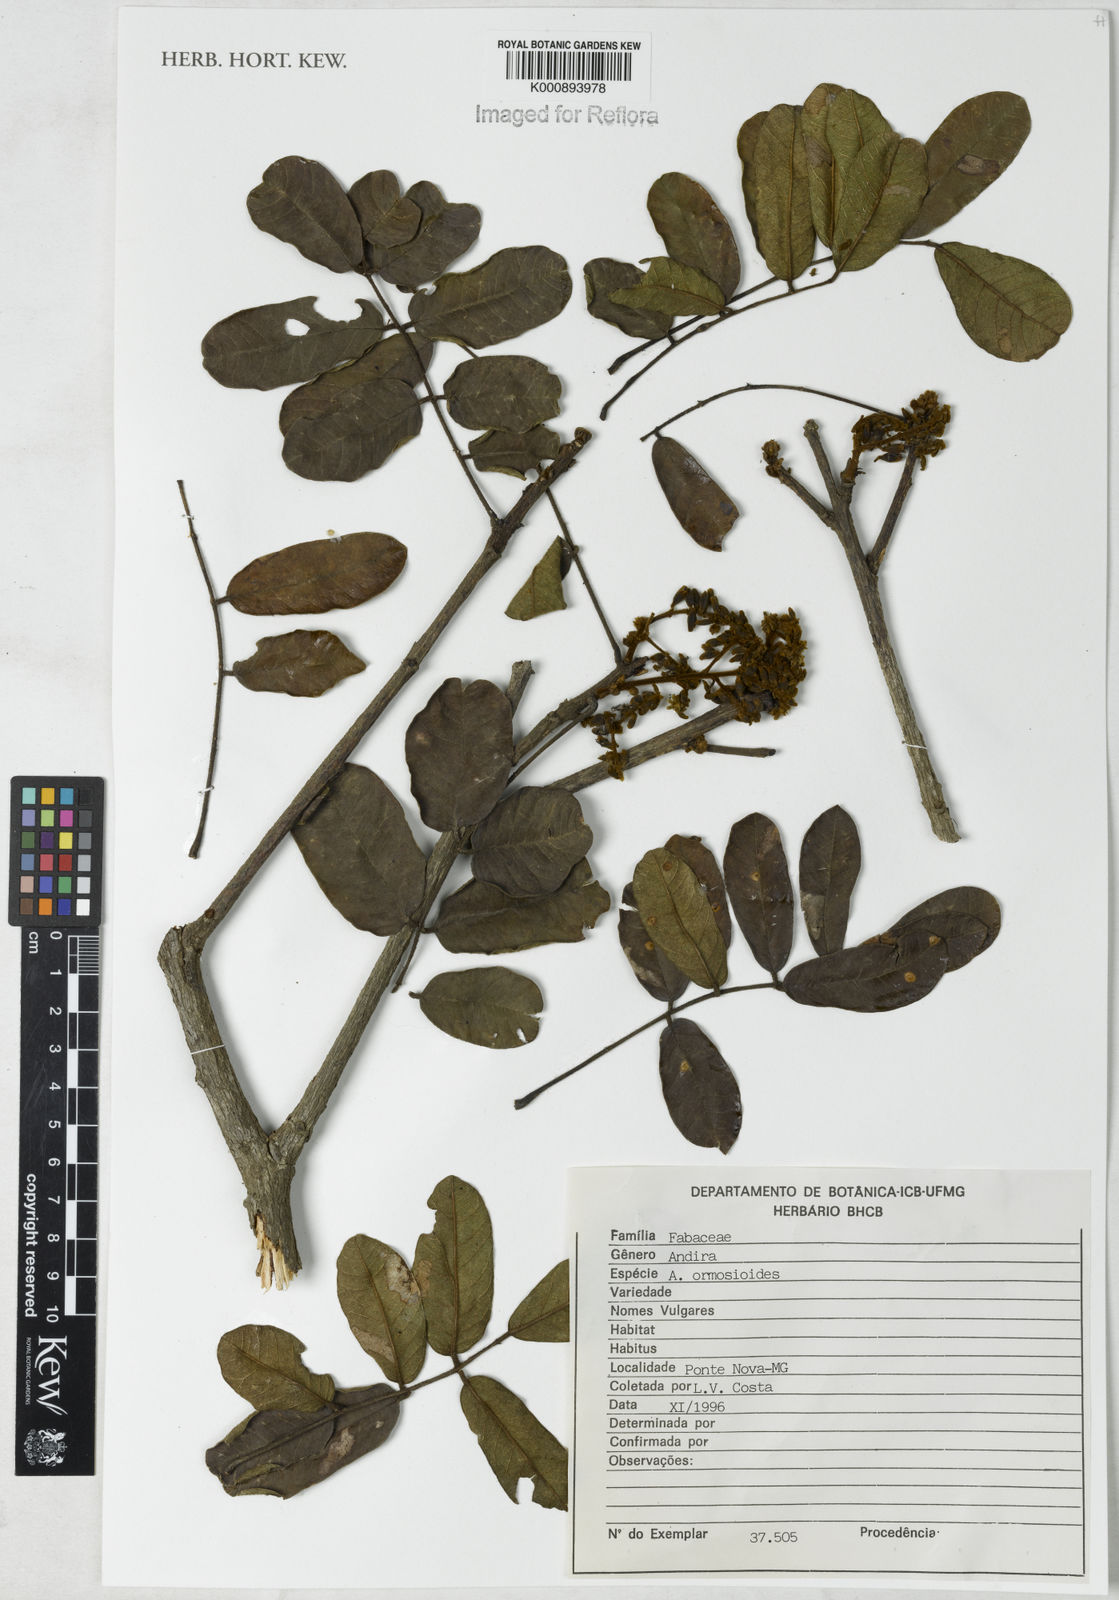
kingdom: Plantae
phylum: Tracheophyta
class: Magnoliopsida
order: Fabales
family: Fabaceae
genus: Andira
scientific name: Andira ormosioides
